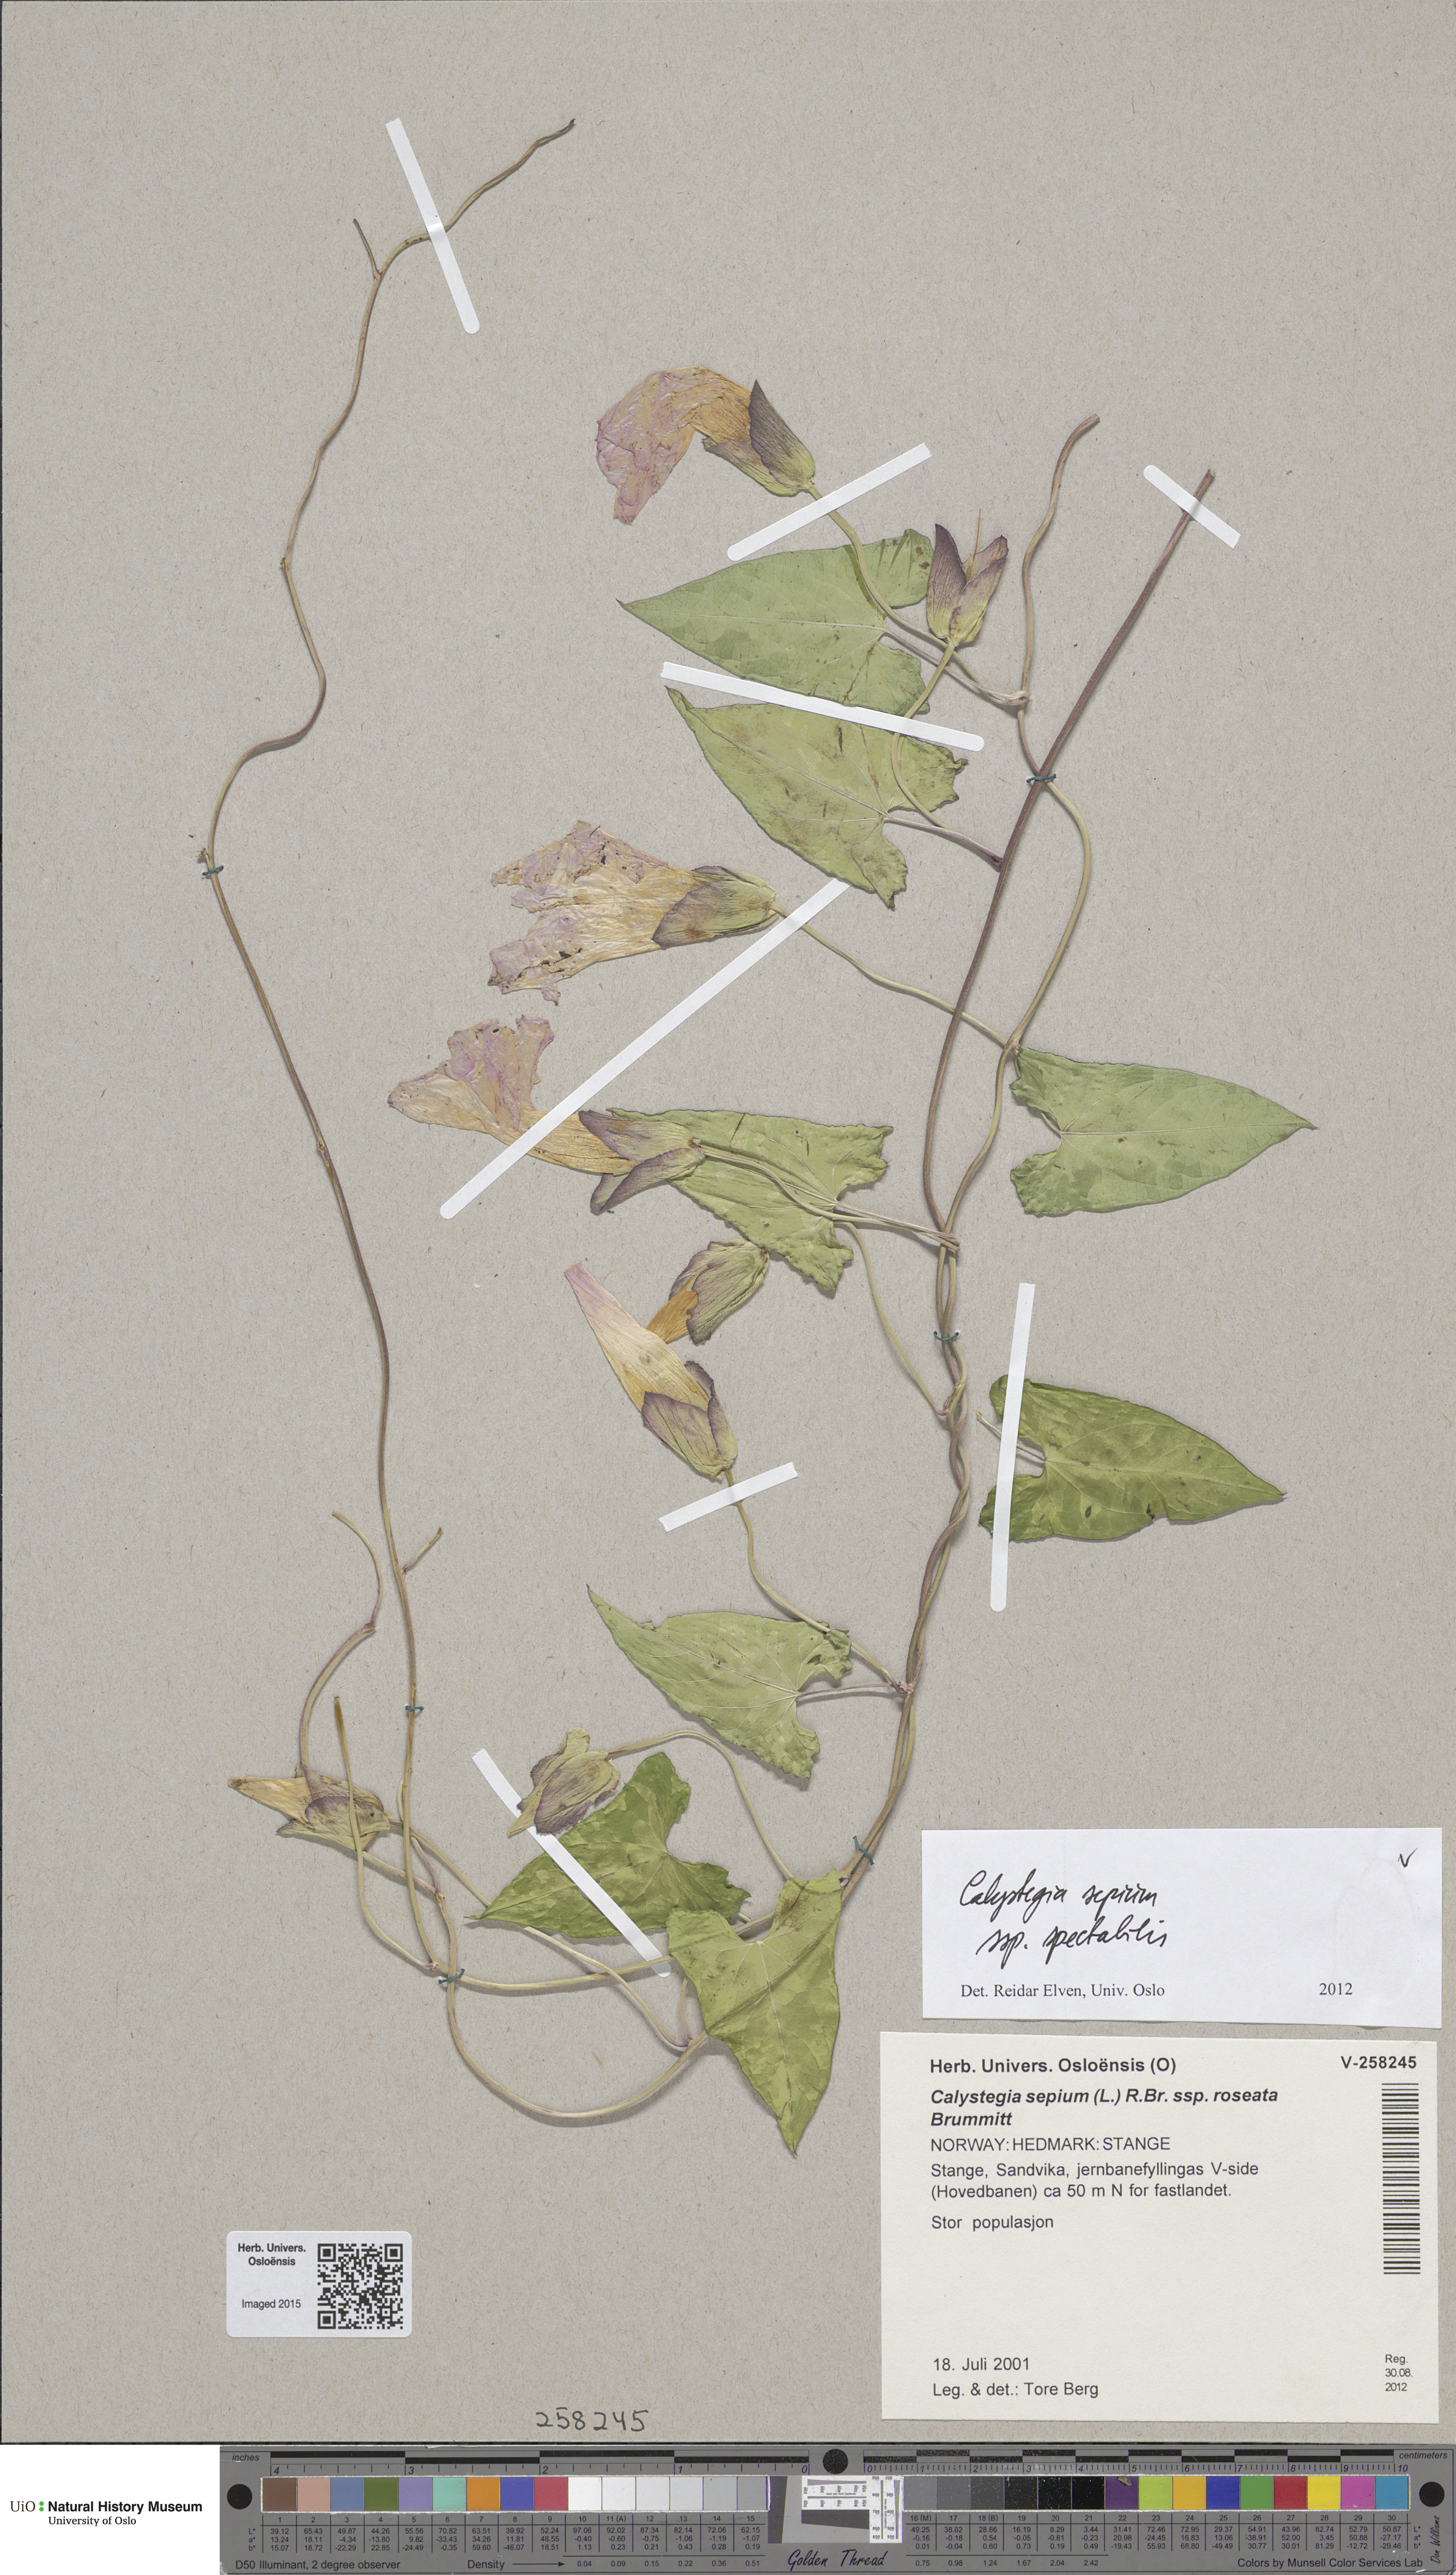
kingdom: Plantae
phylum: Tracheophyta
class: Magnoliopsida
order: Solanales
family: Convolvulaceae
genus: Calystegia
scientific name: Calystegia sepium
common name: Hedge bindweed
